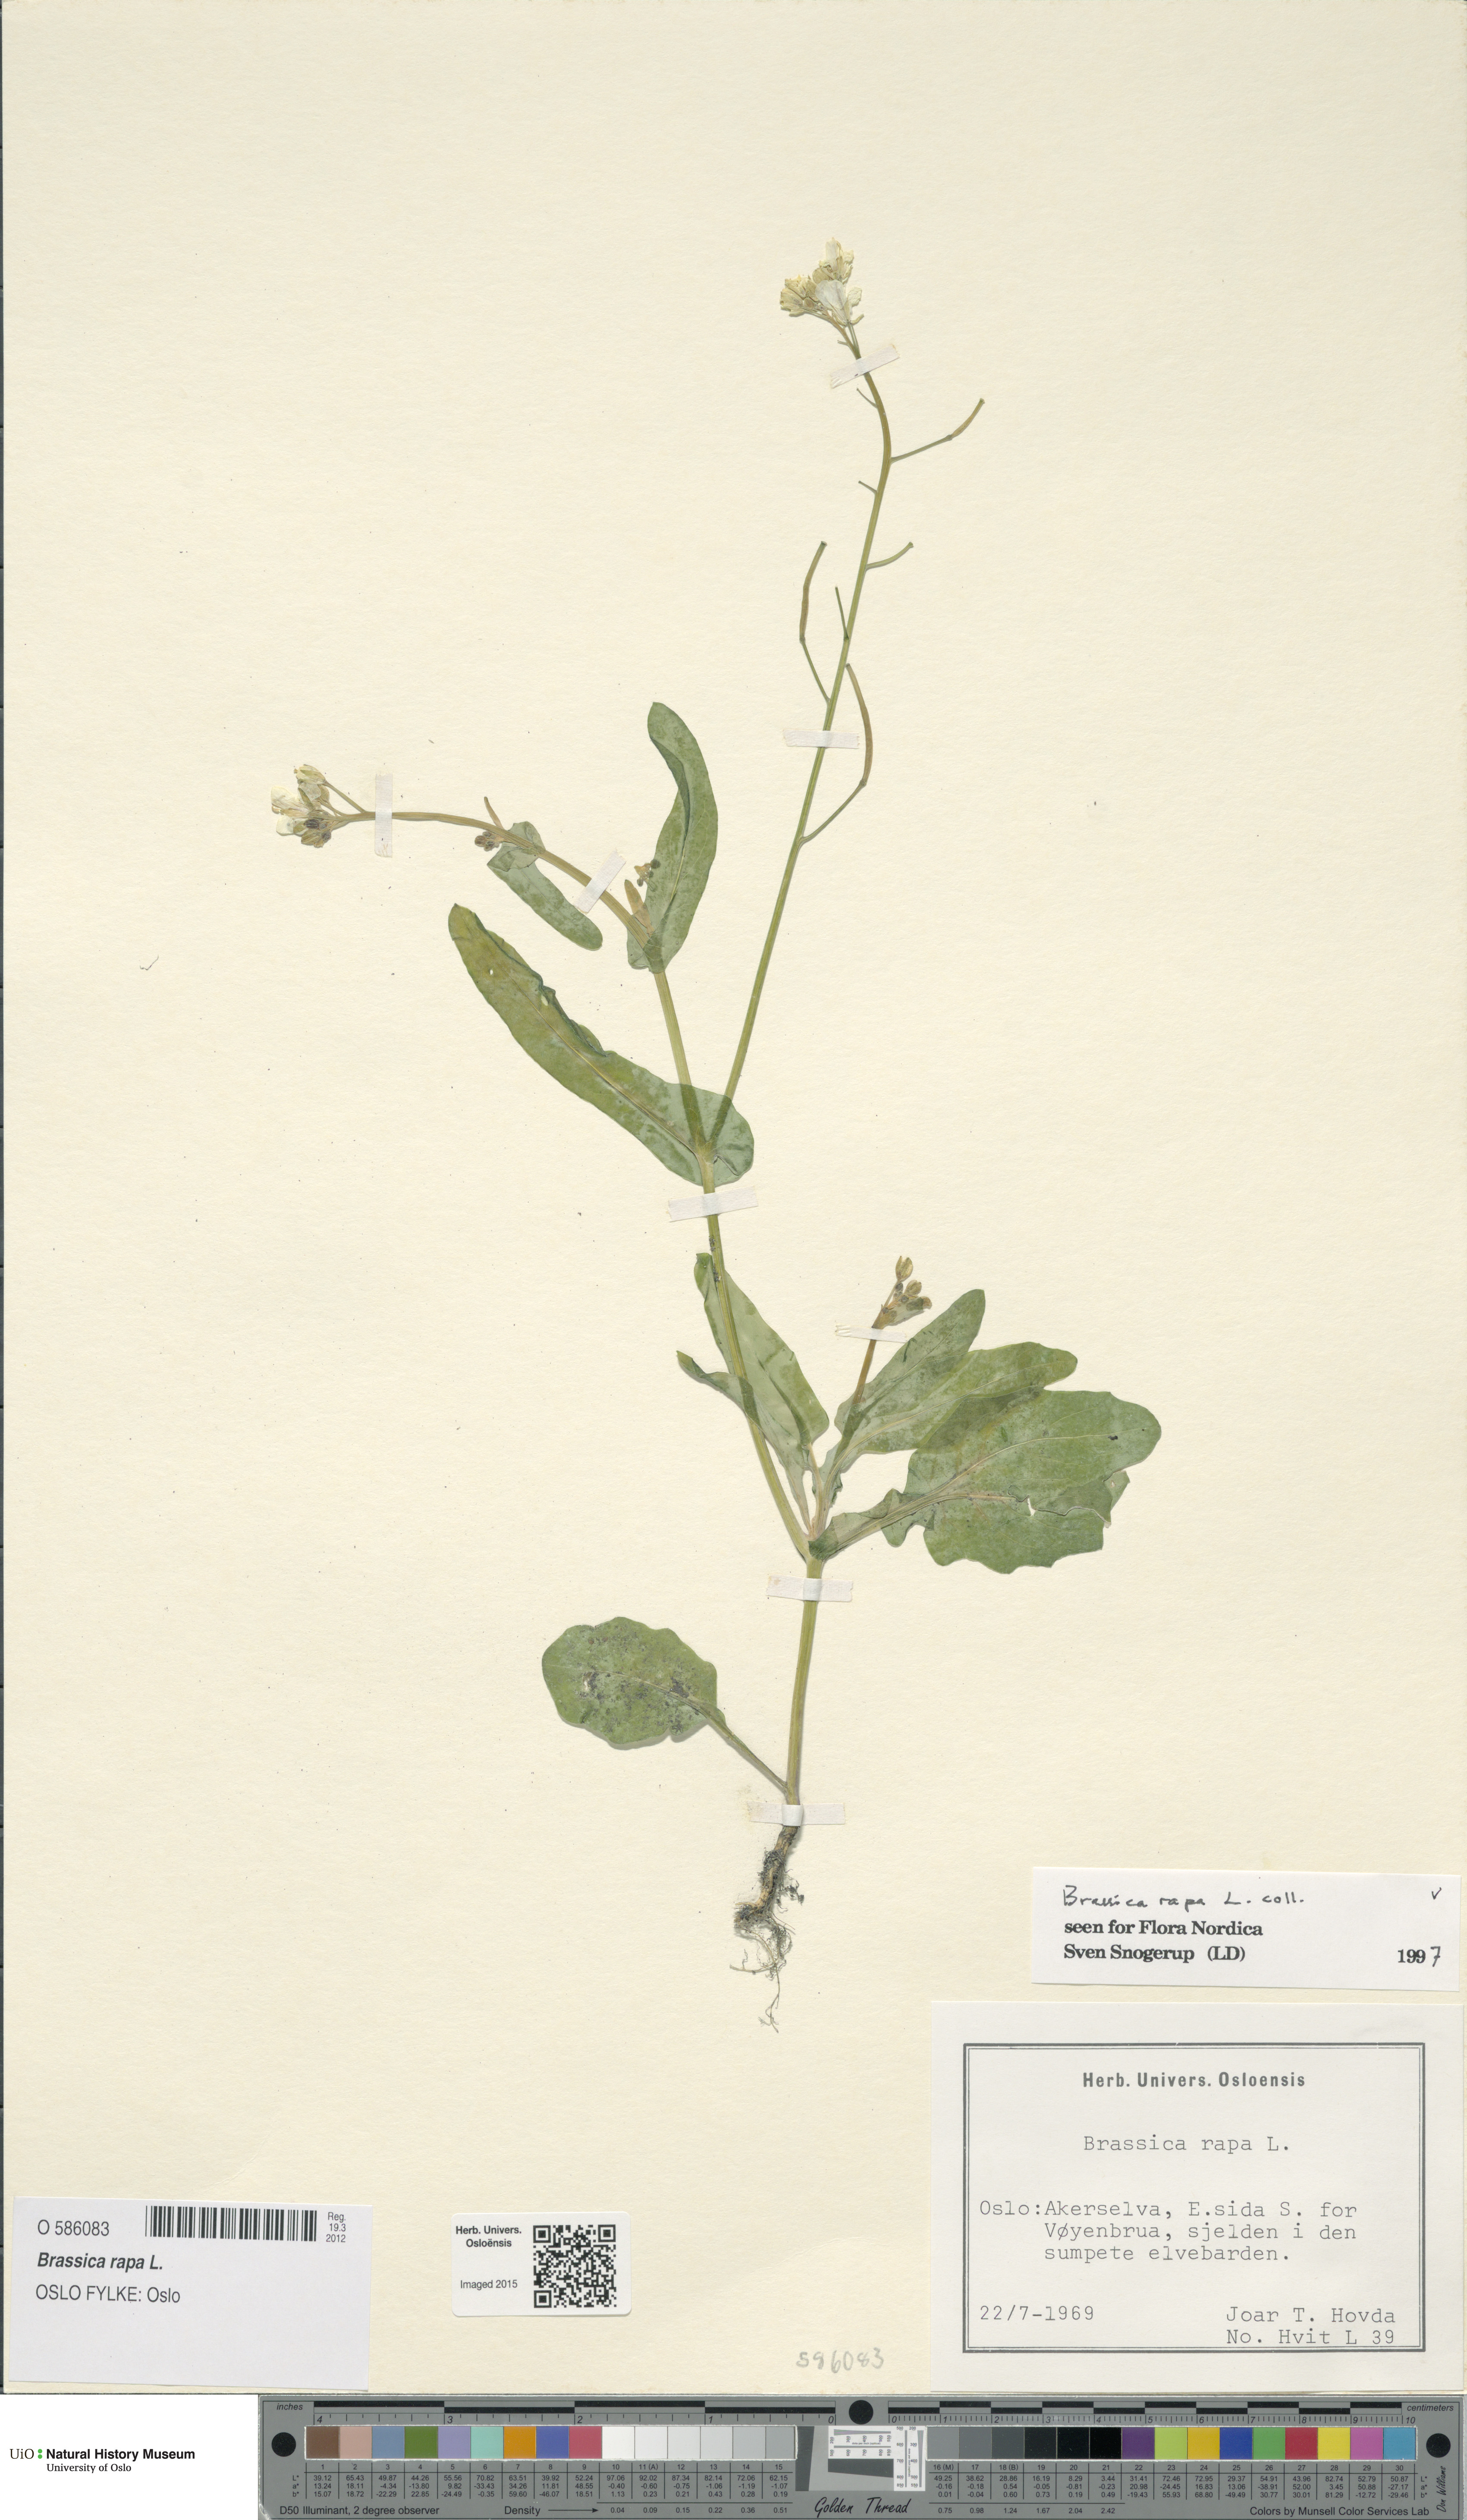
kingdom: Plantae
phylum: Tracheophyta
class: Magnoliopsida
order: Brassicales
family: Brassicaceae
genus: Brassica
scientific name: Brassica rapa
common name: Field mustard
